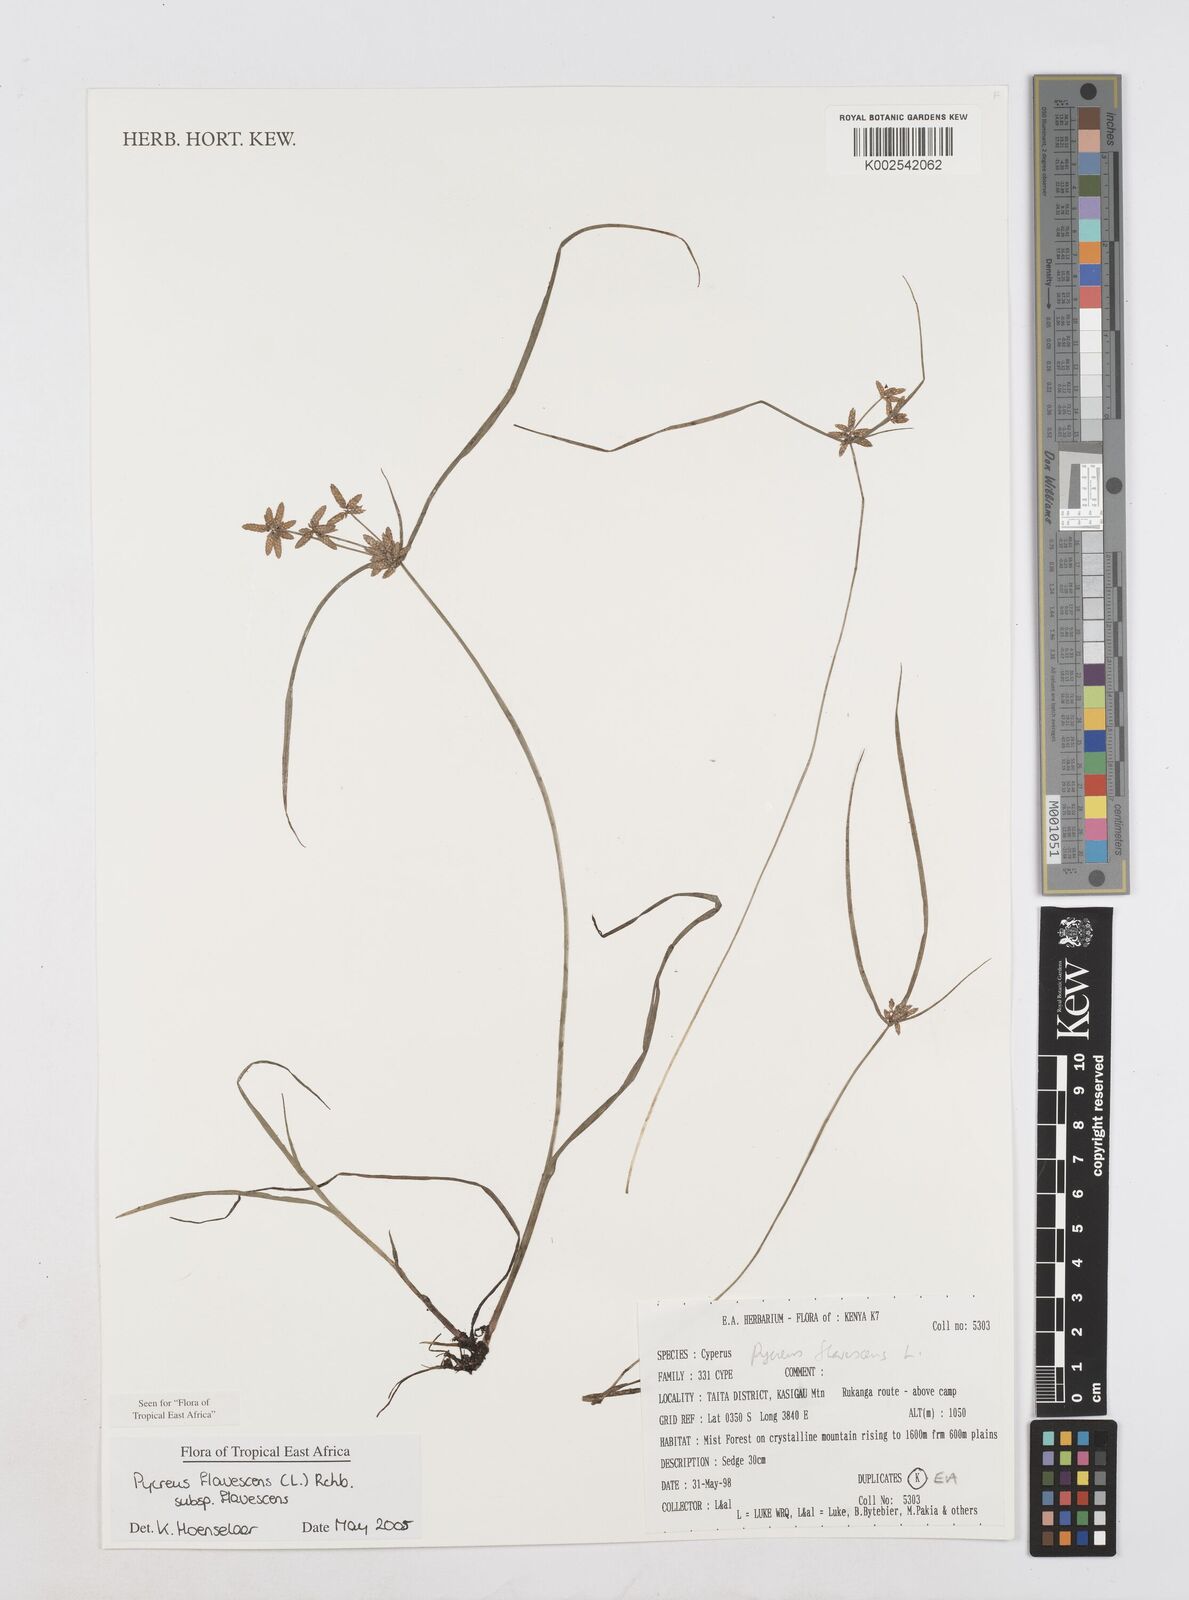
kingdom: Plantae
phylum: Tracheophyta
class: Liliopsida
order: Poales
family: Cyperaceae
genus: Cyperus
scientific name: Cyperus flavescens
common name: Yellow galingale
